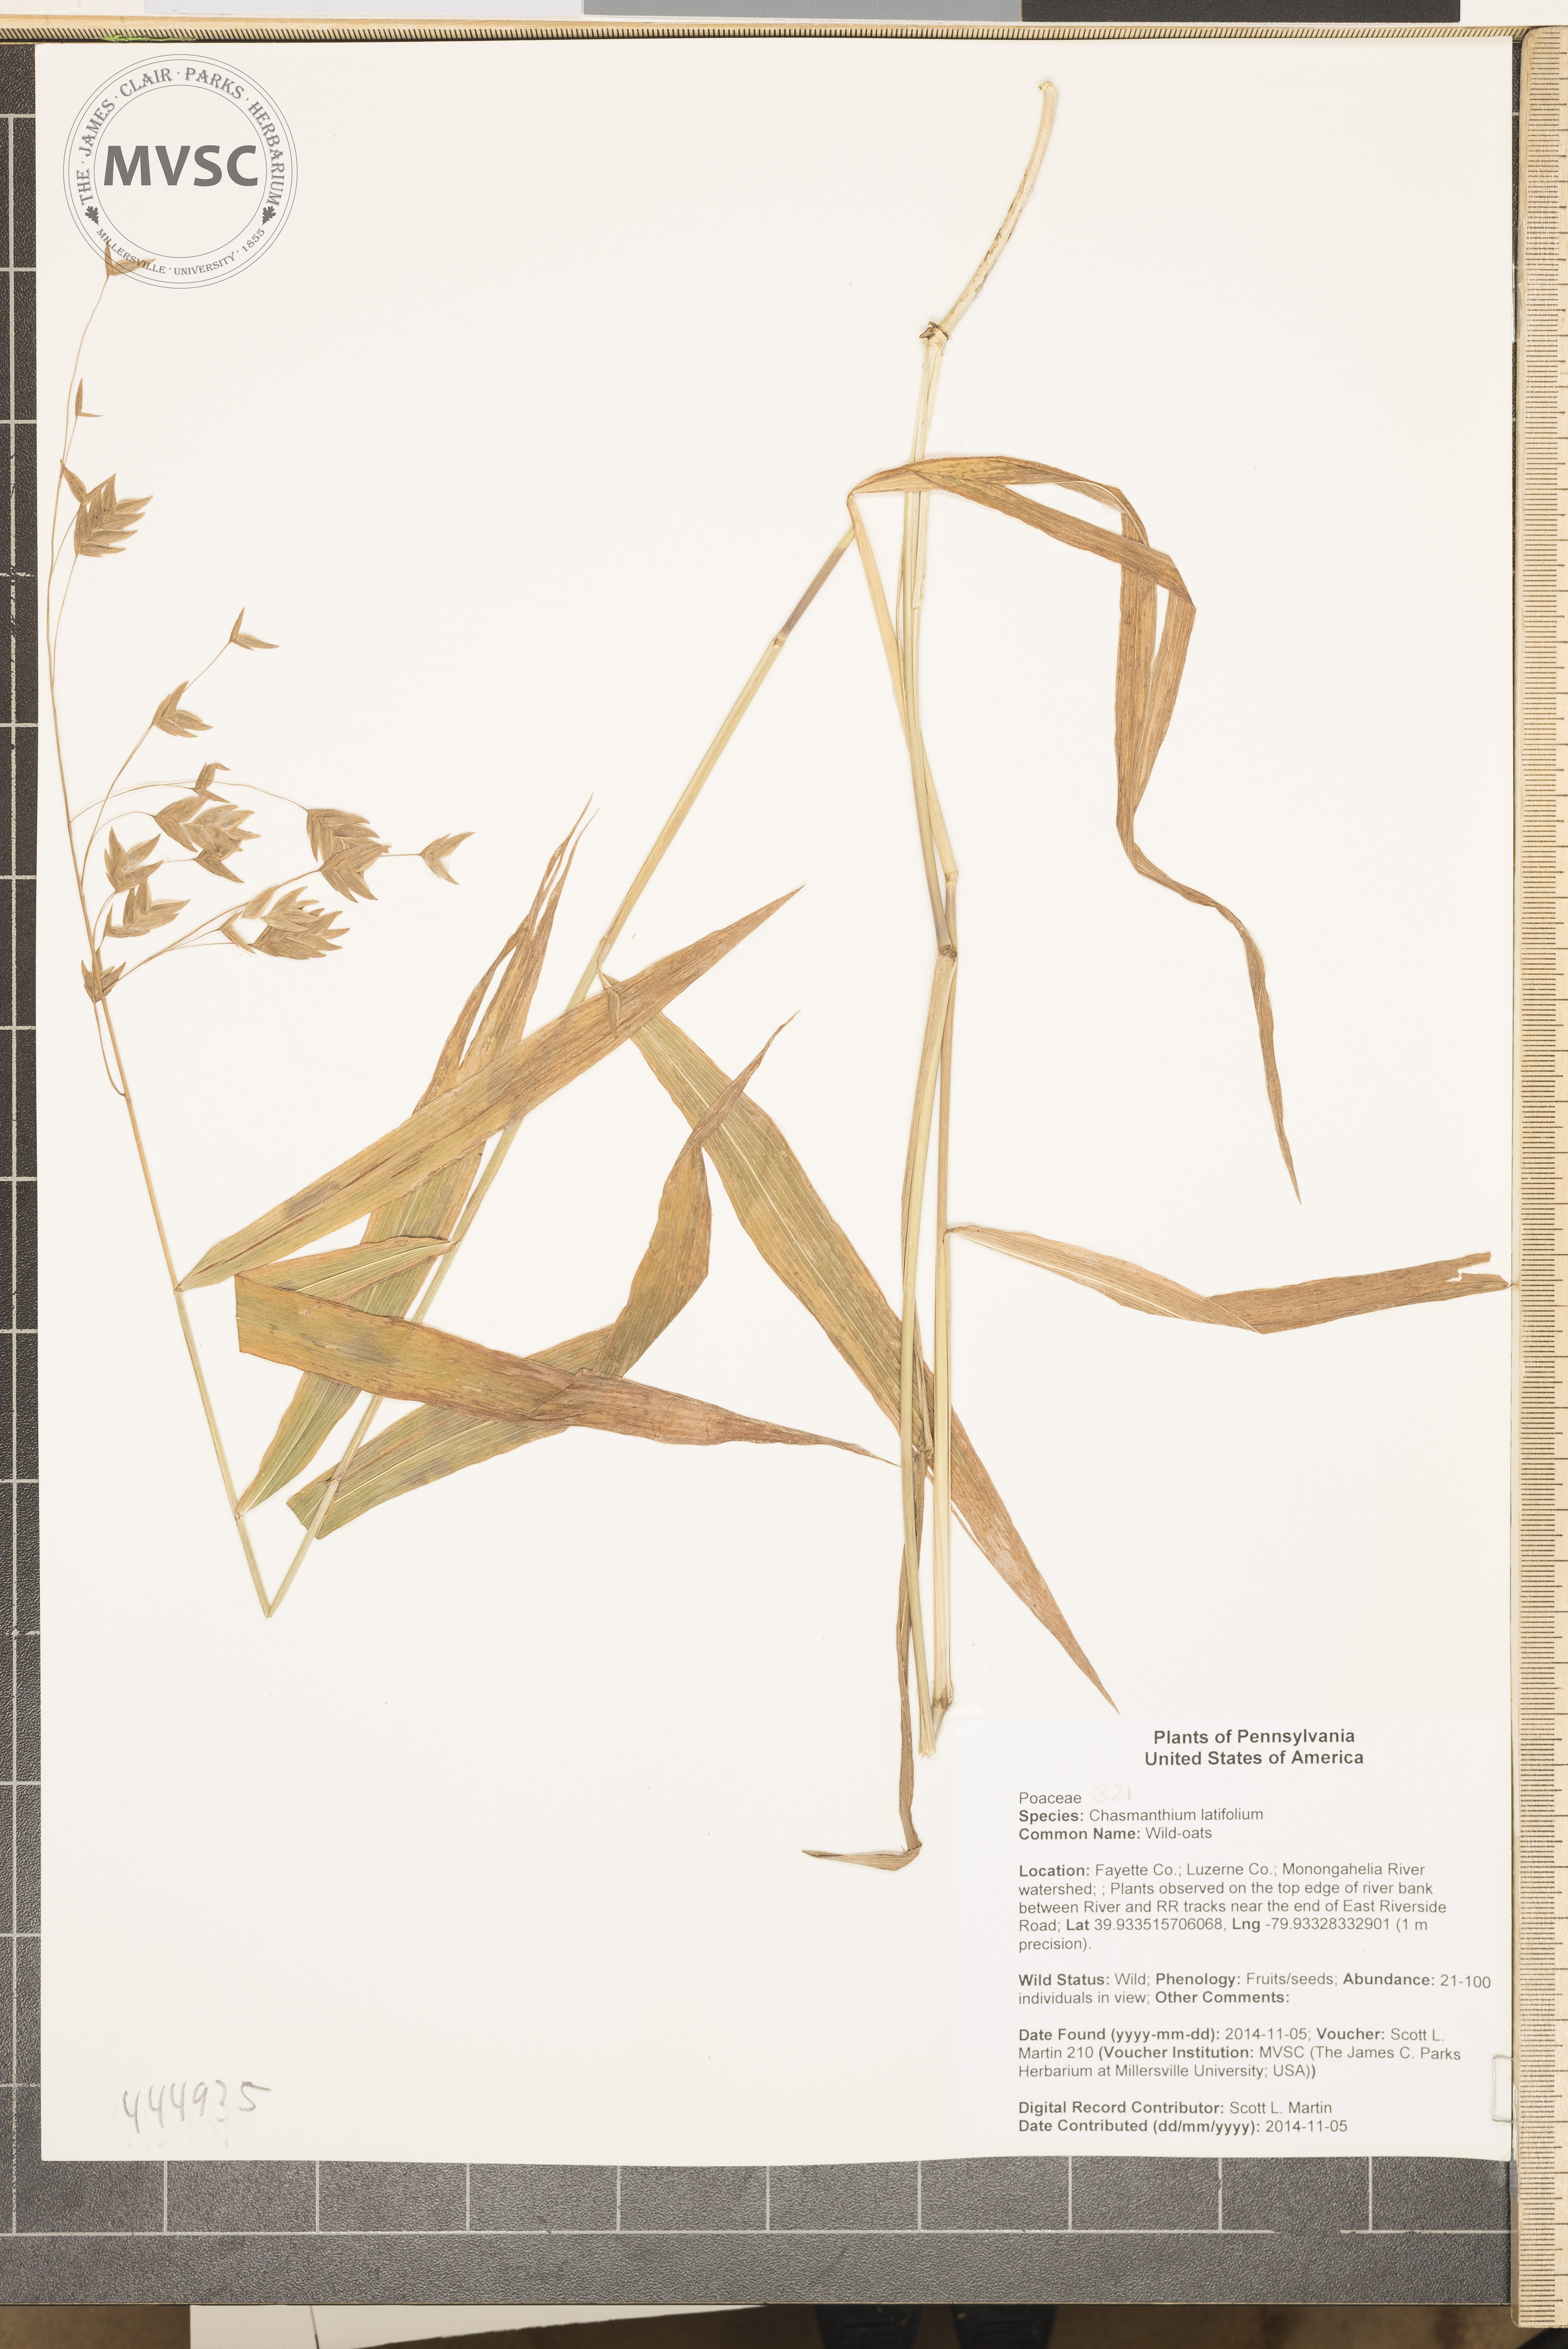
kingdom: Plantae
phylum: Tracheophyta
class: Liliopsida
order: Poales
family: Poaceae
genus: Chasmanthium
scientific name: Chasmanthium latifolium
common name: Wild-oats
